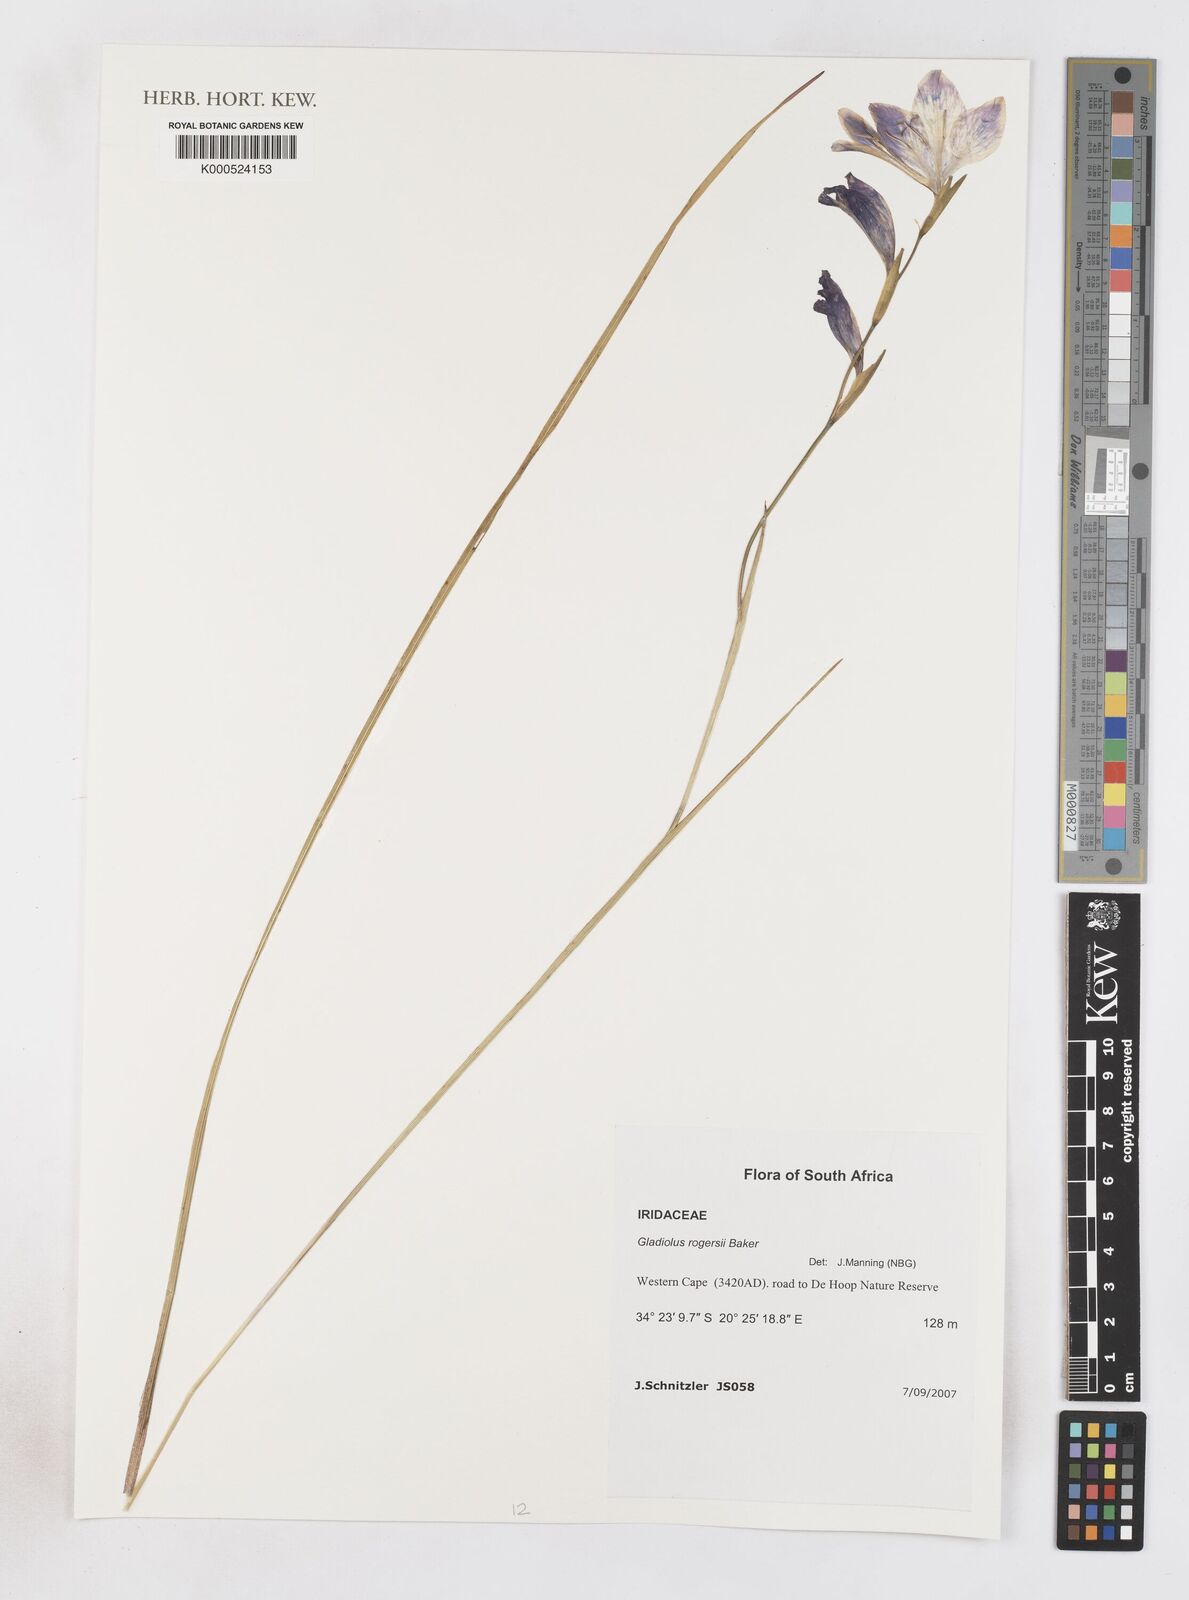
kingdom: Plantae
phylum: Tracheophyta
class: Liliopsida
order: Asparagales
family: Iridaceae
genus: Gladiolus
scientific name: Gladiolus rogersii
